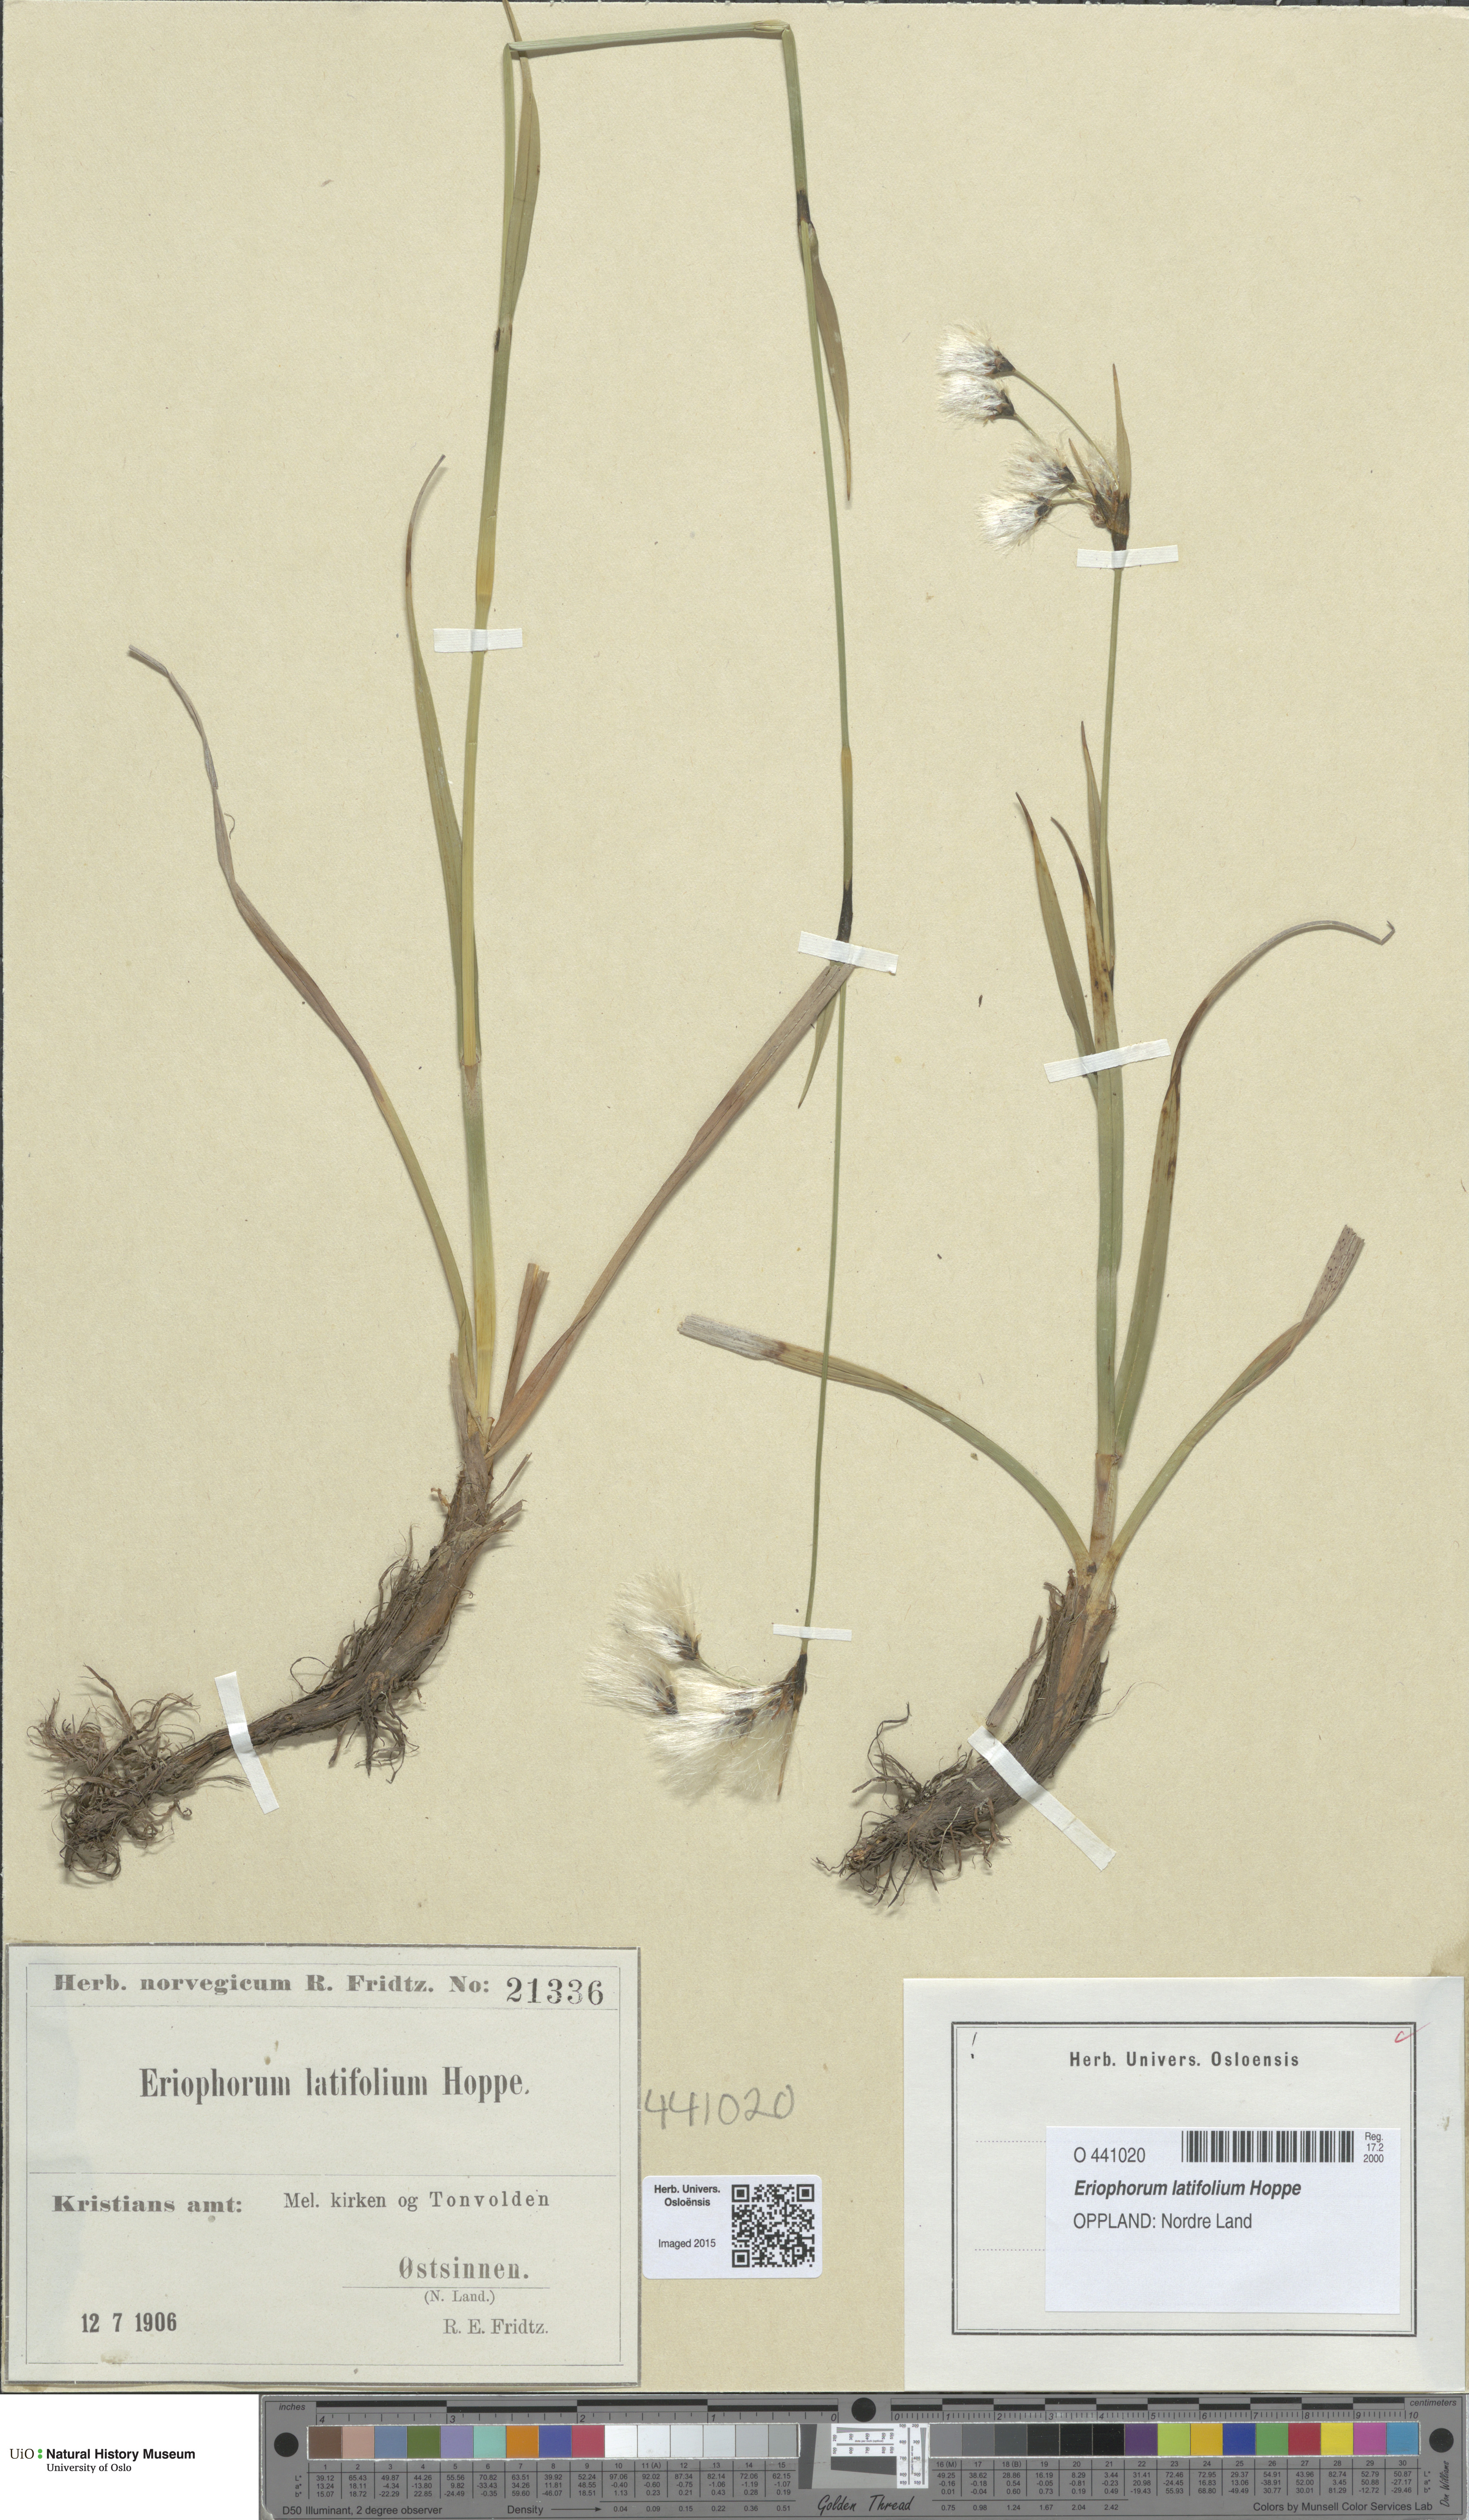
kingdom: Plantae
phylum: Tracheophyta
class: Liliopsida
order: Poales
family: Cyperaceae
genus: Eriophorum
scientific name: Eriophorum latifolium
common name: Broad-leaved cottongrass
